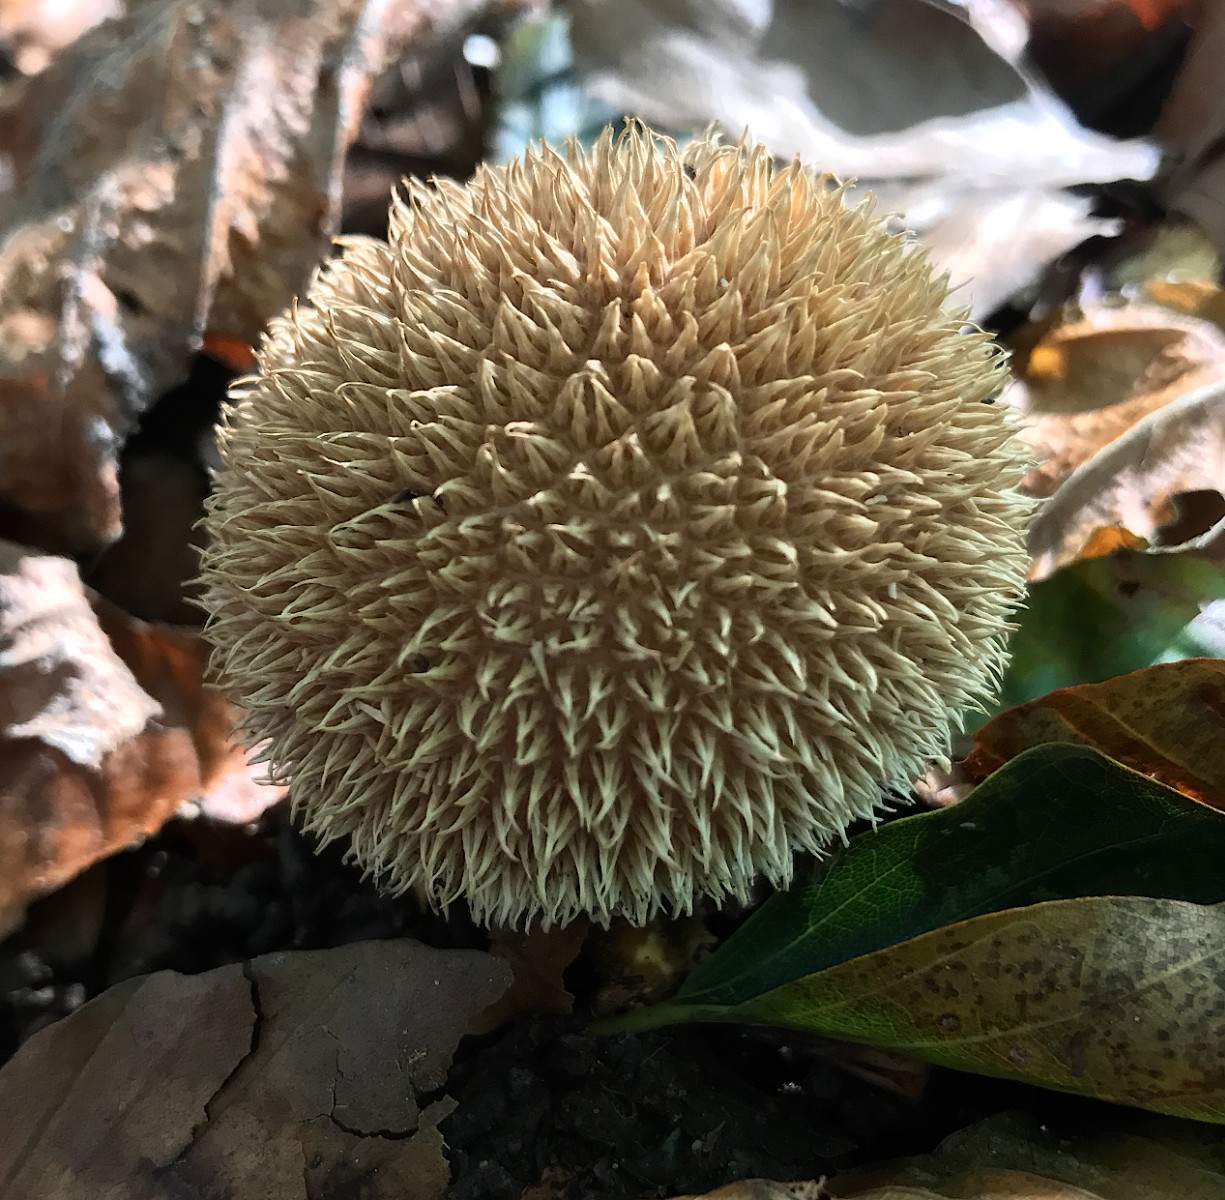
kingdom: Fungi
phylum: Basidiomycota
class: Agaricomycetes
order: Agaricales
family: Lycoperdaceae
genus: Lycoperdon
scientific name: Lycoperdon echinatum
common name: pindsvine-støvbold
